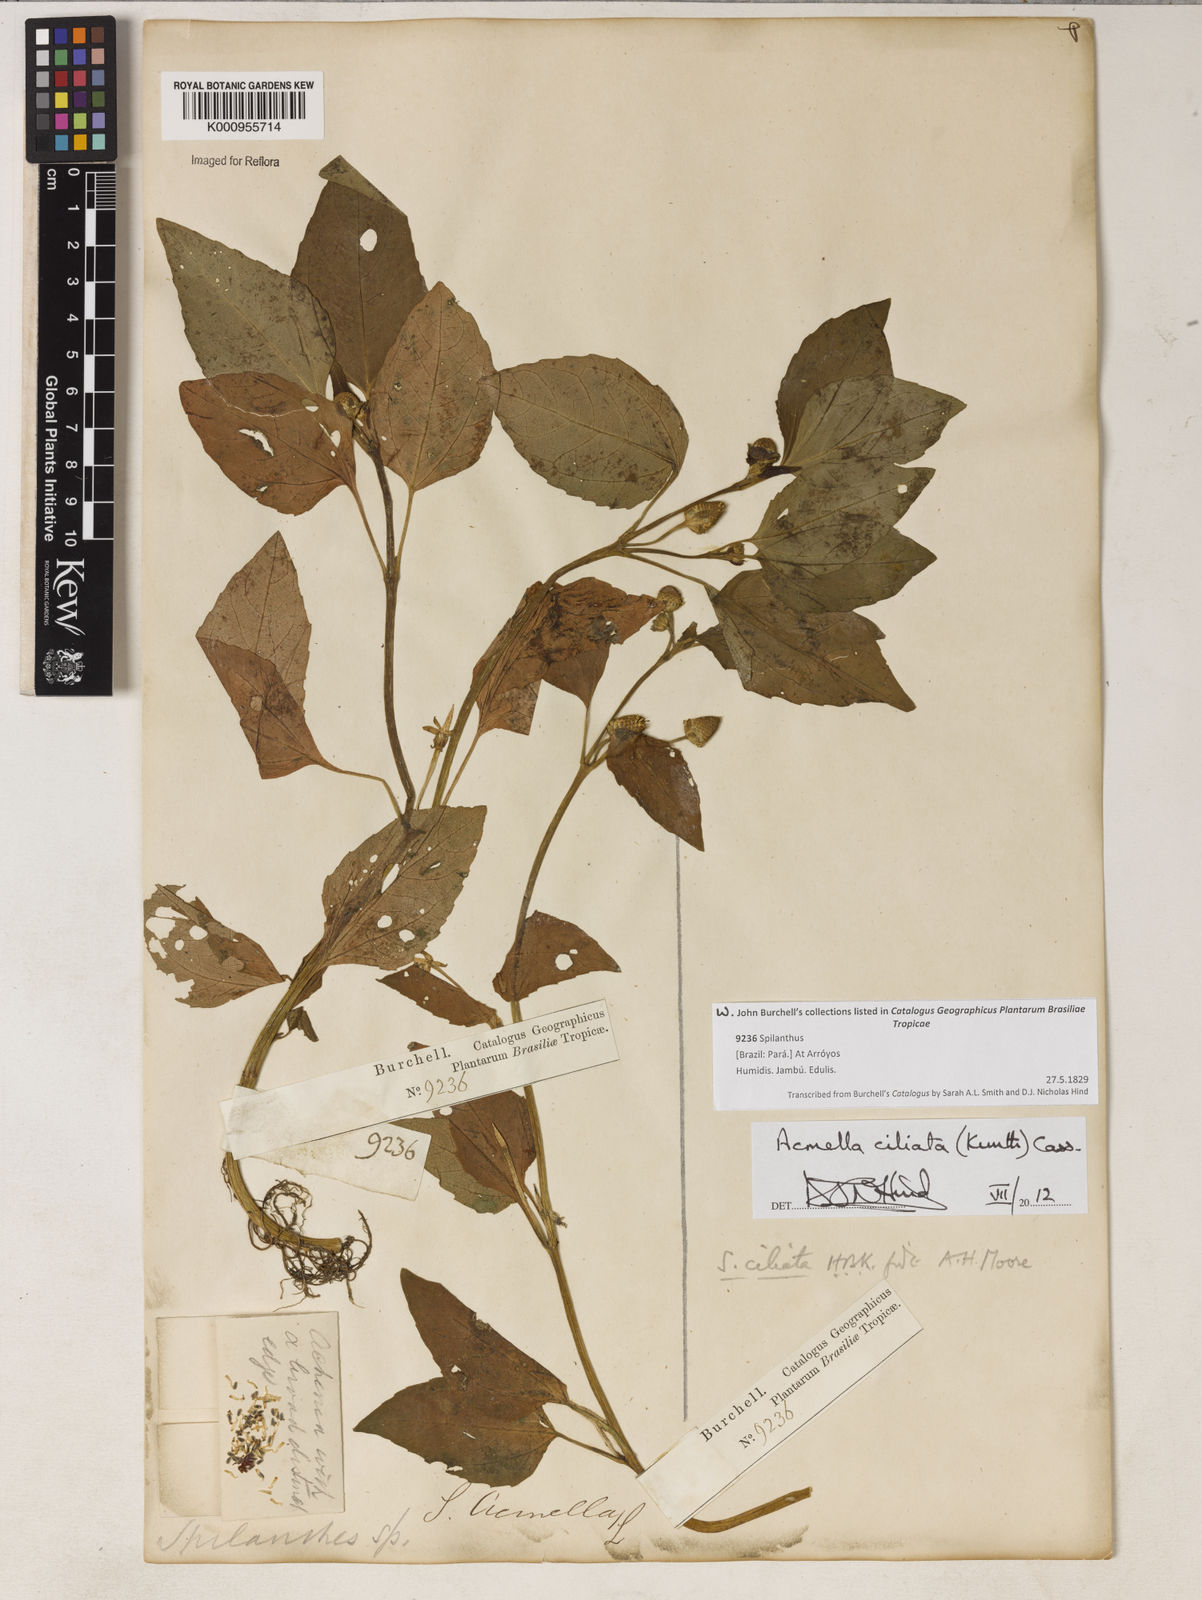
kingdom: Plantae
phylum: Tracheophyta
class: Magnoliopsida
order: Asterales
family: Asteraceae
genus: Acmella
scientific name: Acmella ciliata
